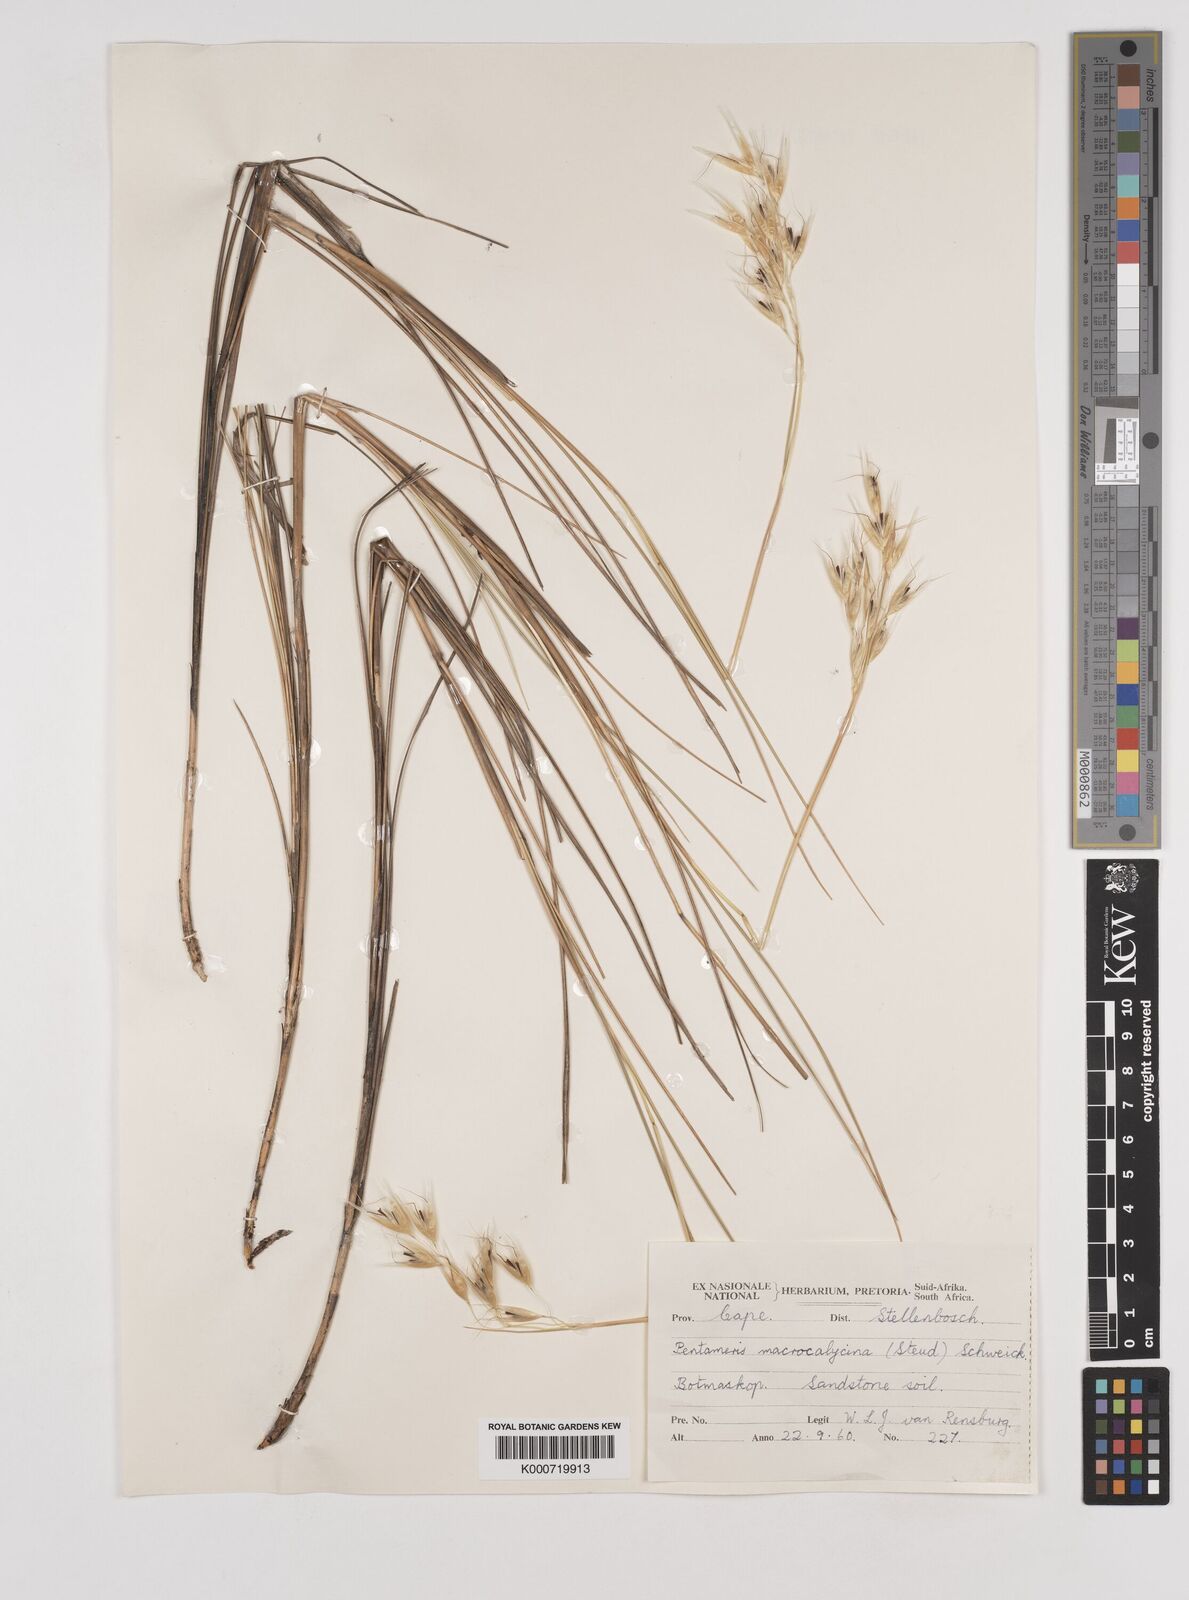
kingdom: Plantae
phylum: Tracheophyta
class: Liliopsida
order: Poales
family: Poaceae
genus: Pentameris
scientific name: Pentameris macrocalycina
